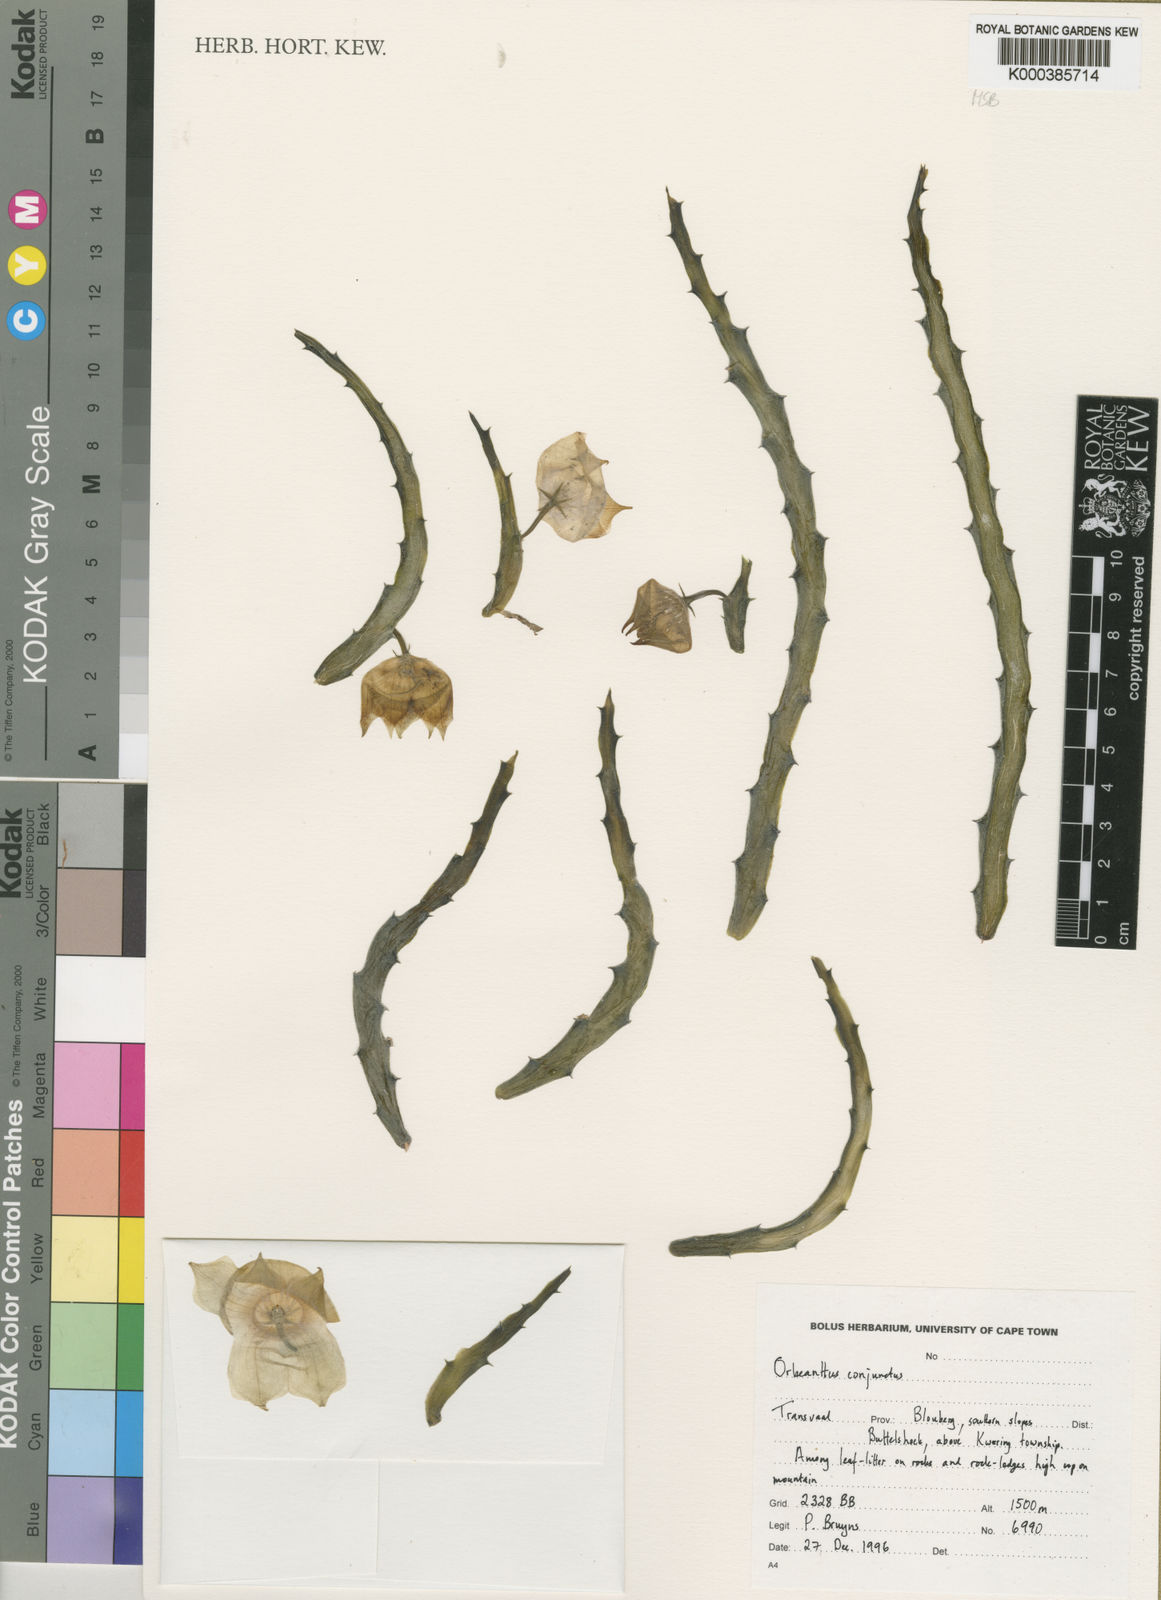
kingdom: Plantae
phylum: Tracheophyta
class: Magnoliopsida
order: Gentianales
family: Apocynaceae
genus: Ceropegia
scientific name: Ceropegia conjuncta
